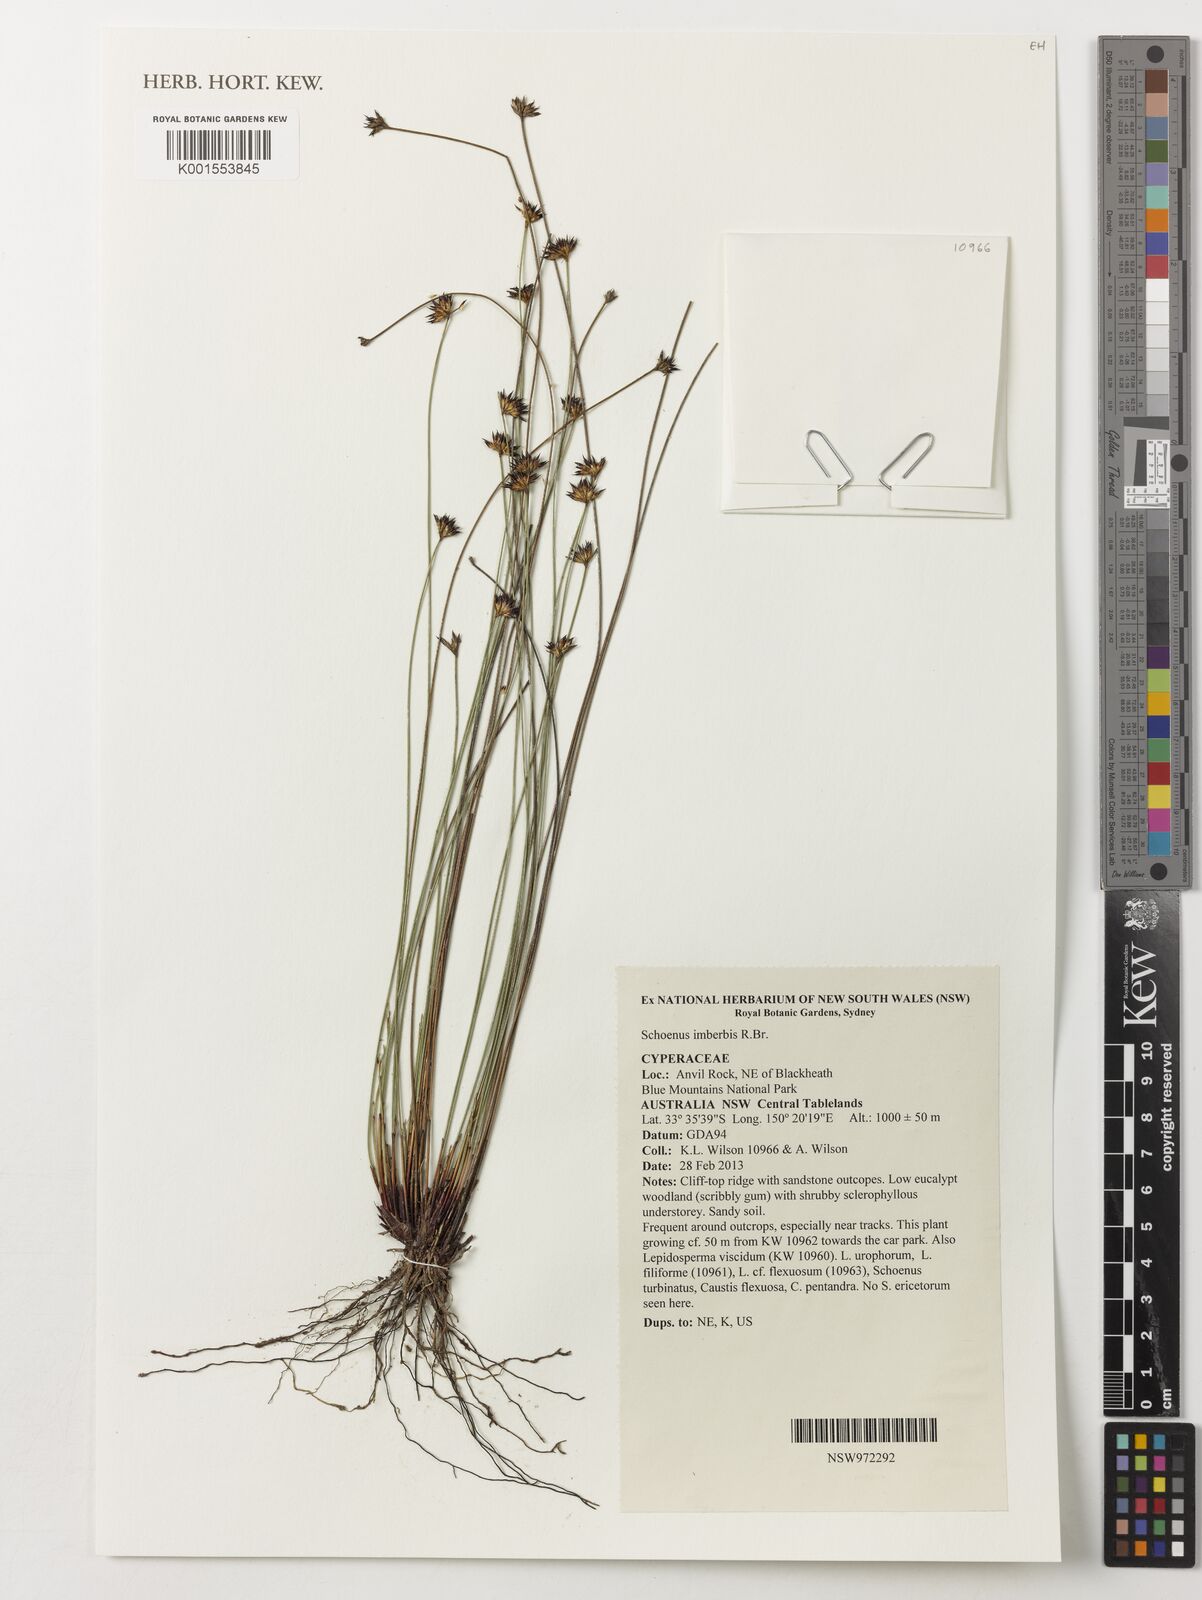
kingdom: Plantae
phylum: Tracheophyta
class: Liliopsida
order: Poales
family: Cyperaceae
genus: Schoenus
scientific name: Schoenus imberbis
